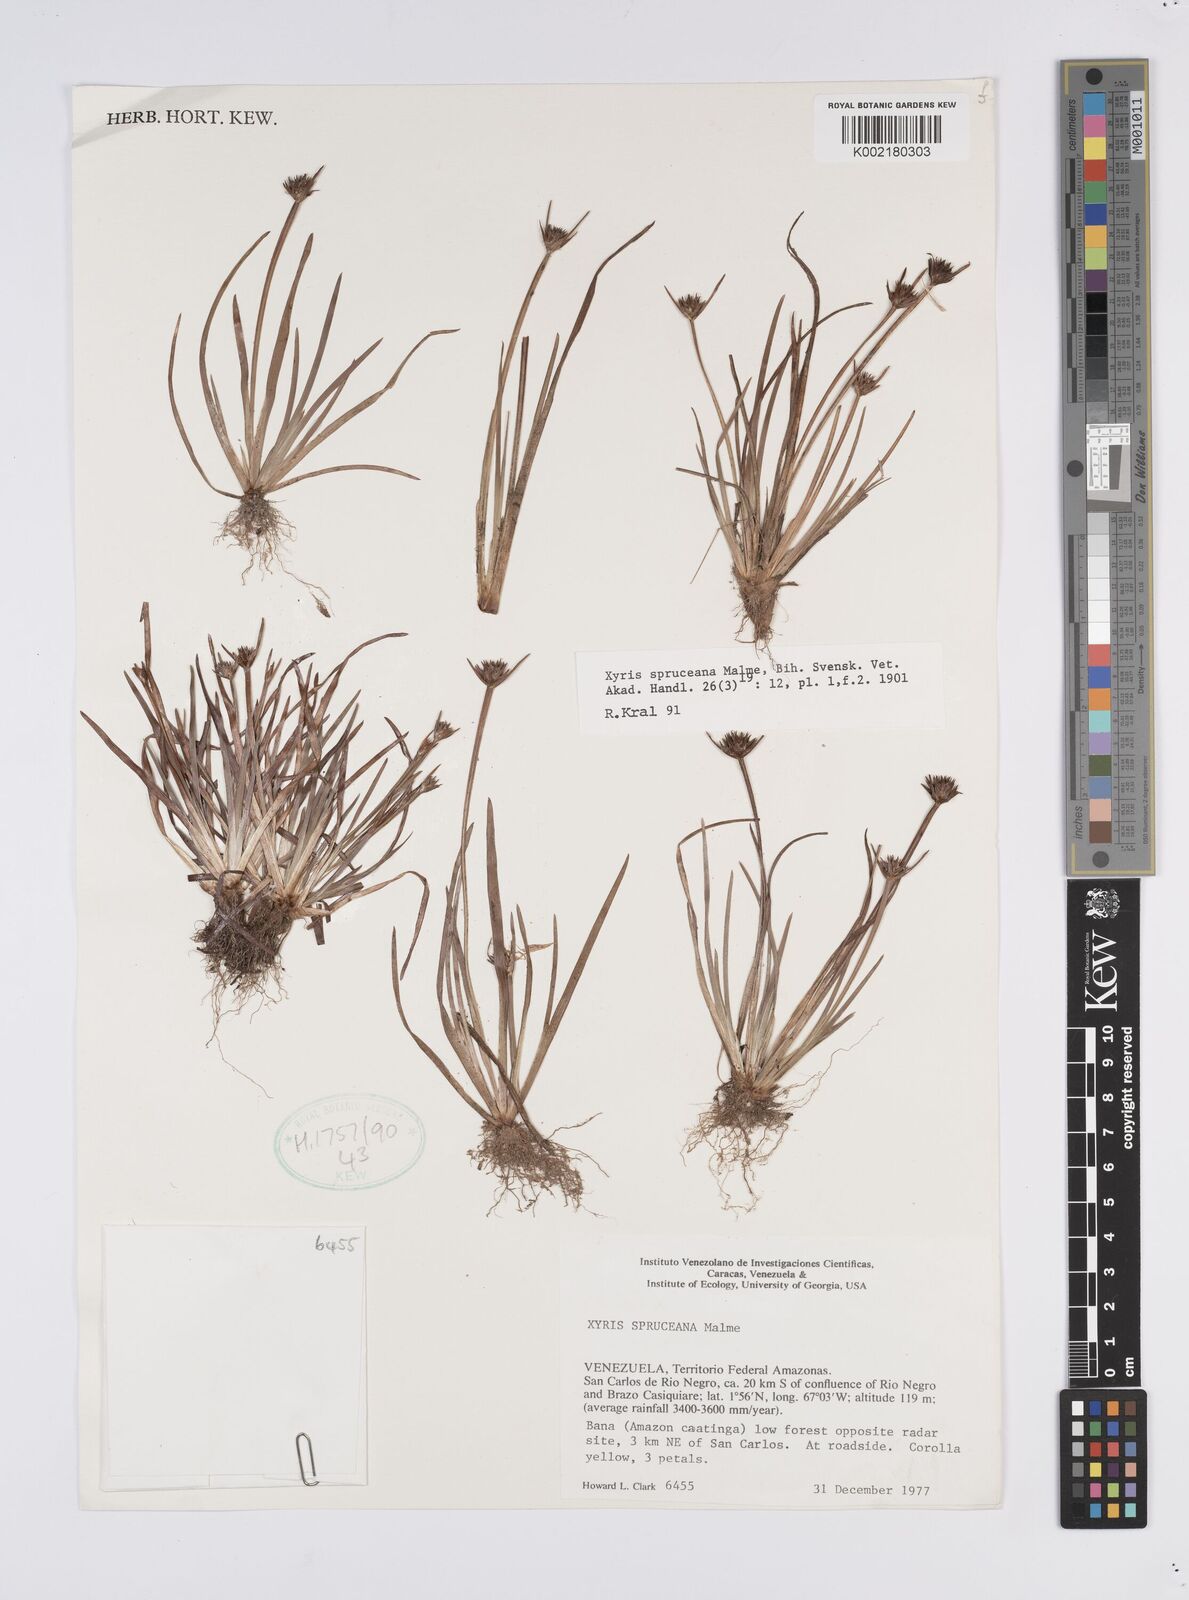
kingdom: Plantae
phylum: Tracheophyta
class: Liliopsida
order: Poales
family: Xyridaceae
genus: Xyris
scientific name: Xyris spruceana
